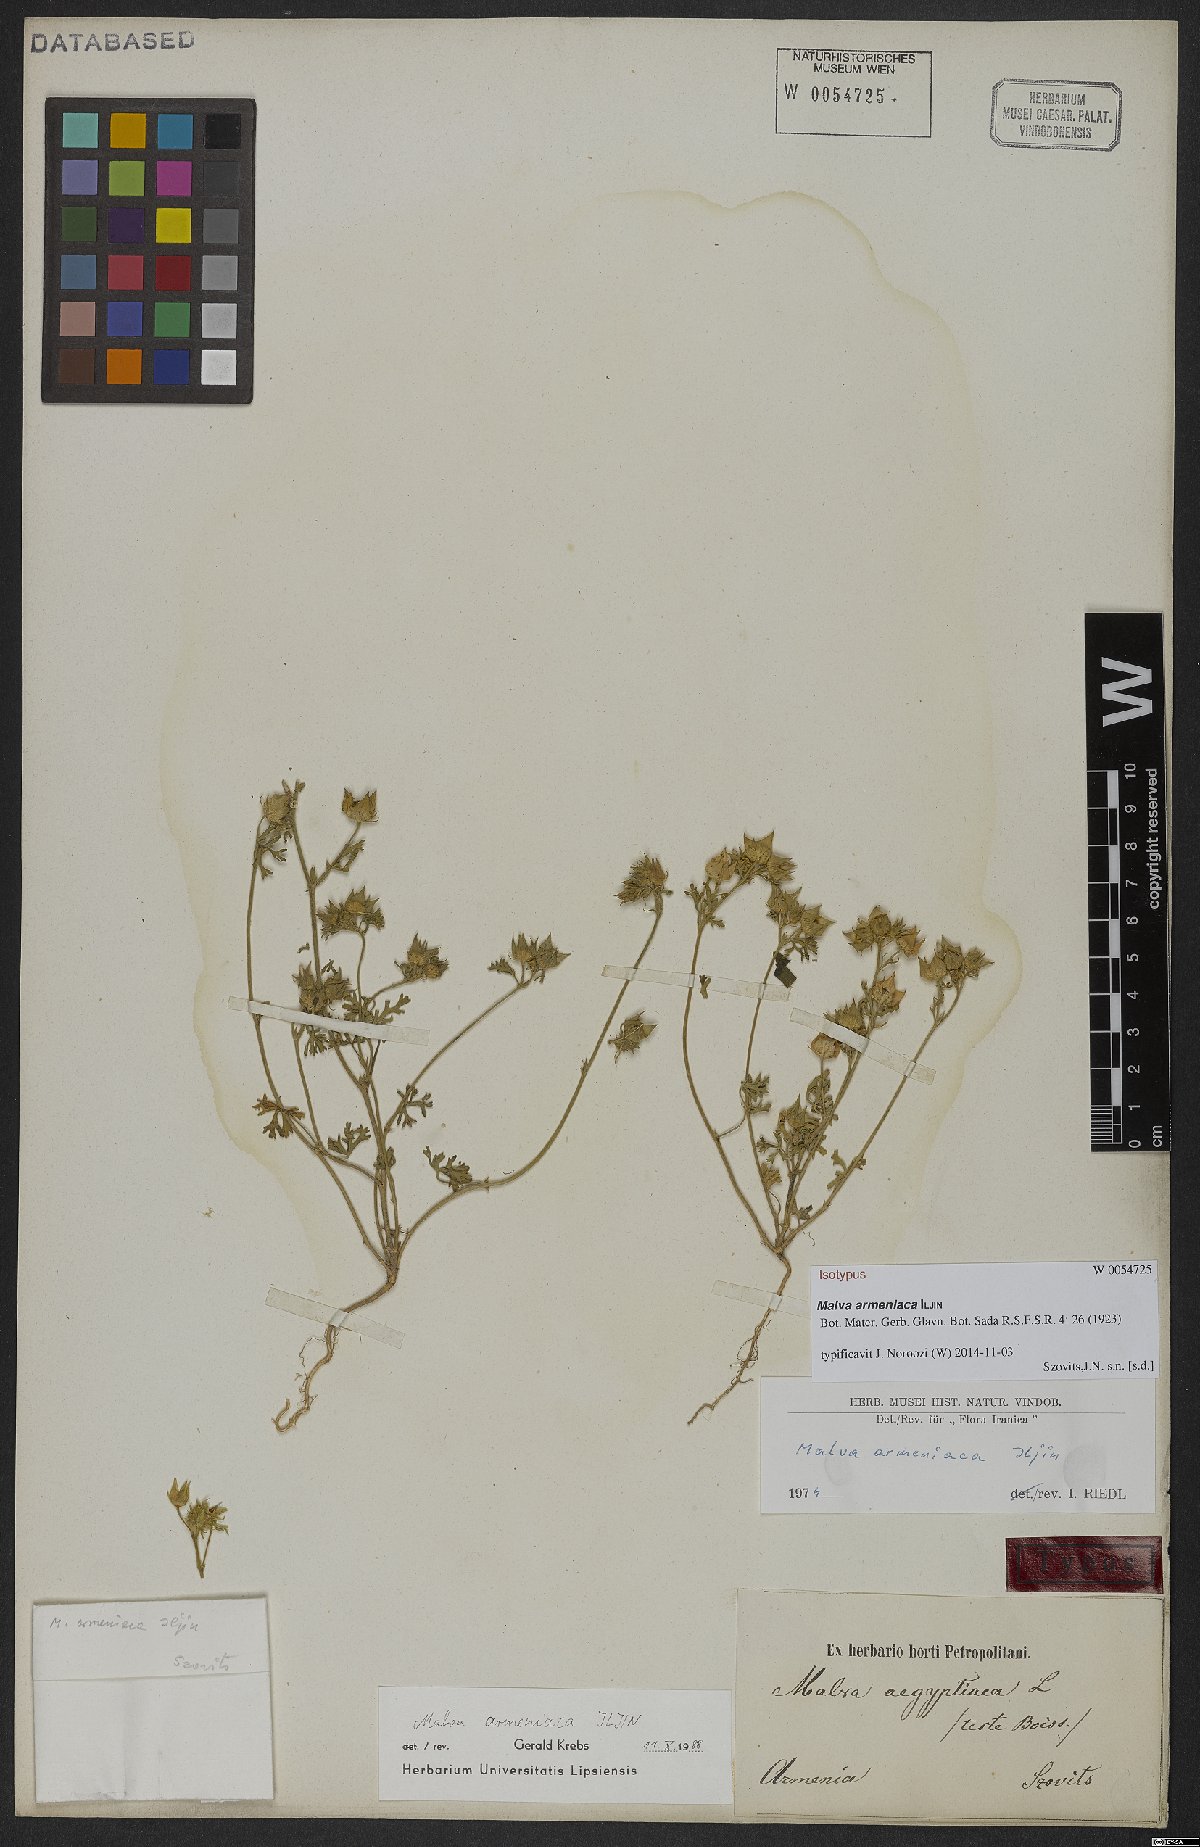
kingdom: Plantae
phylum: Tracheophyta
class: Magnoliopsida
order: Malvales
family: Malvaceae
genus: Malva
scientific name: Malva aegyptia
